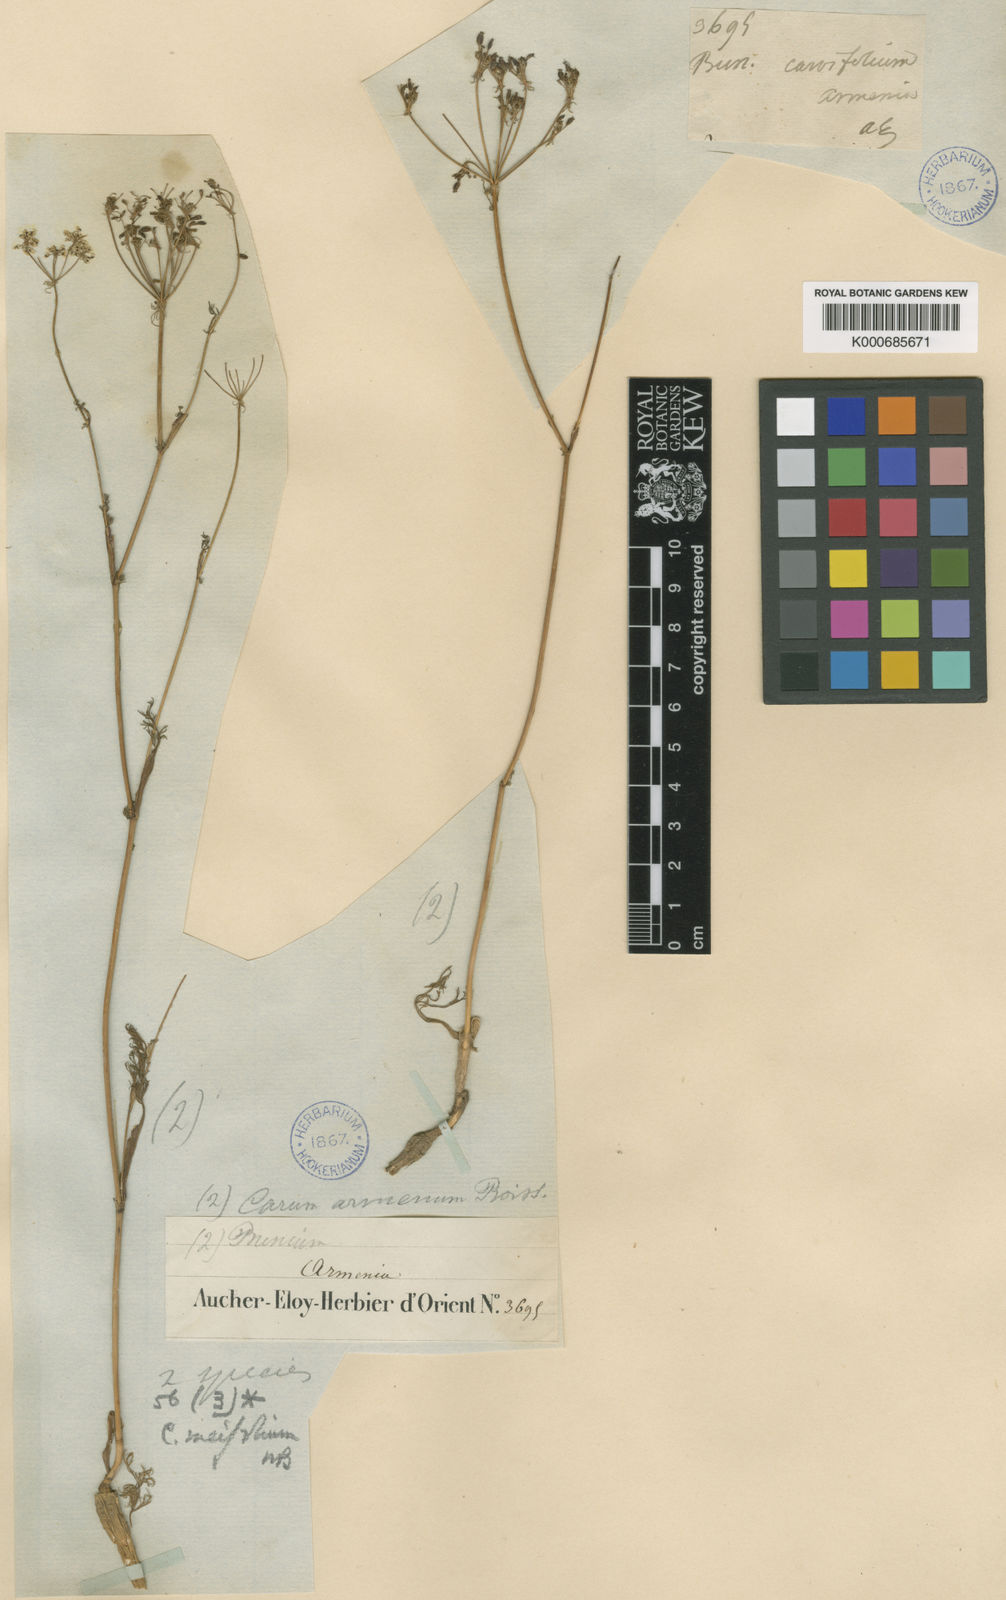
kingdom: Plantae
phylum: Tracheophyta
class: Magnoliopsida
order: Apiales
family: Apiaceae
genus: Carum
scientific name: Carum meifolium
